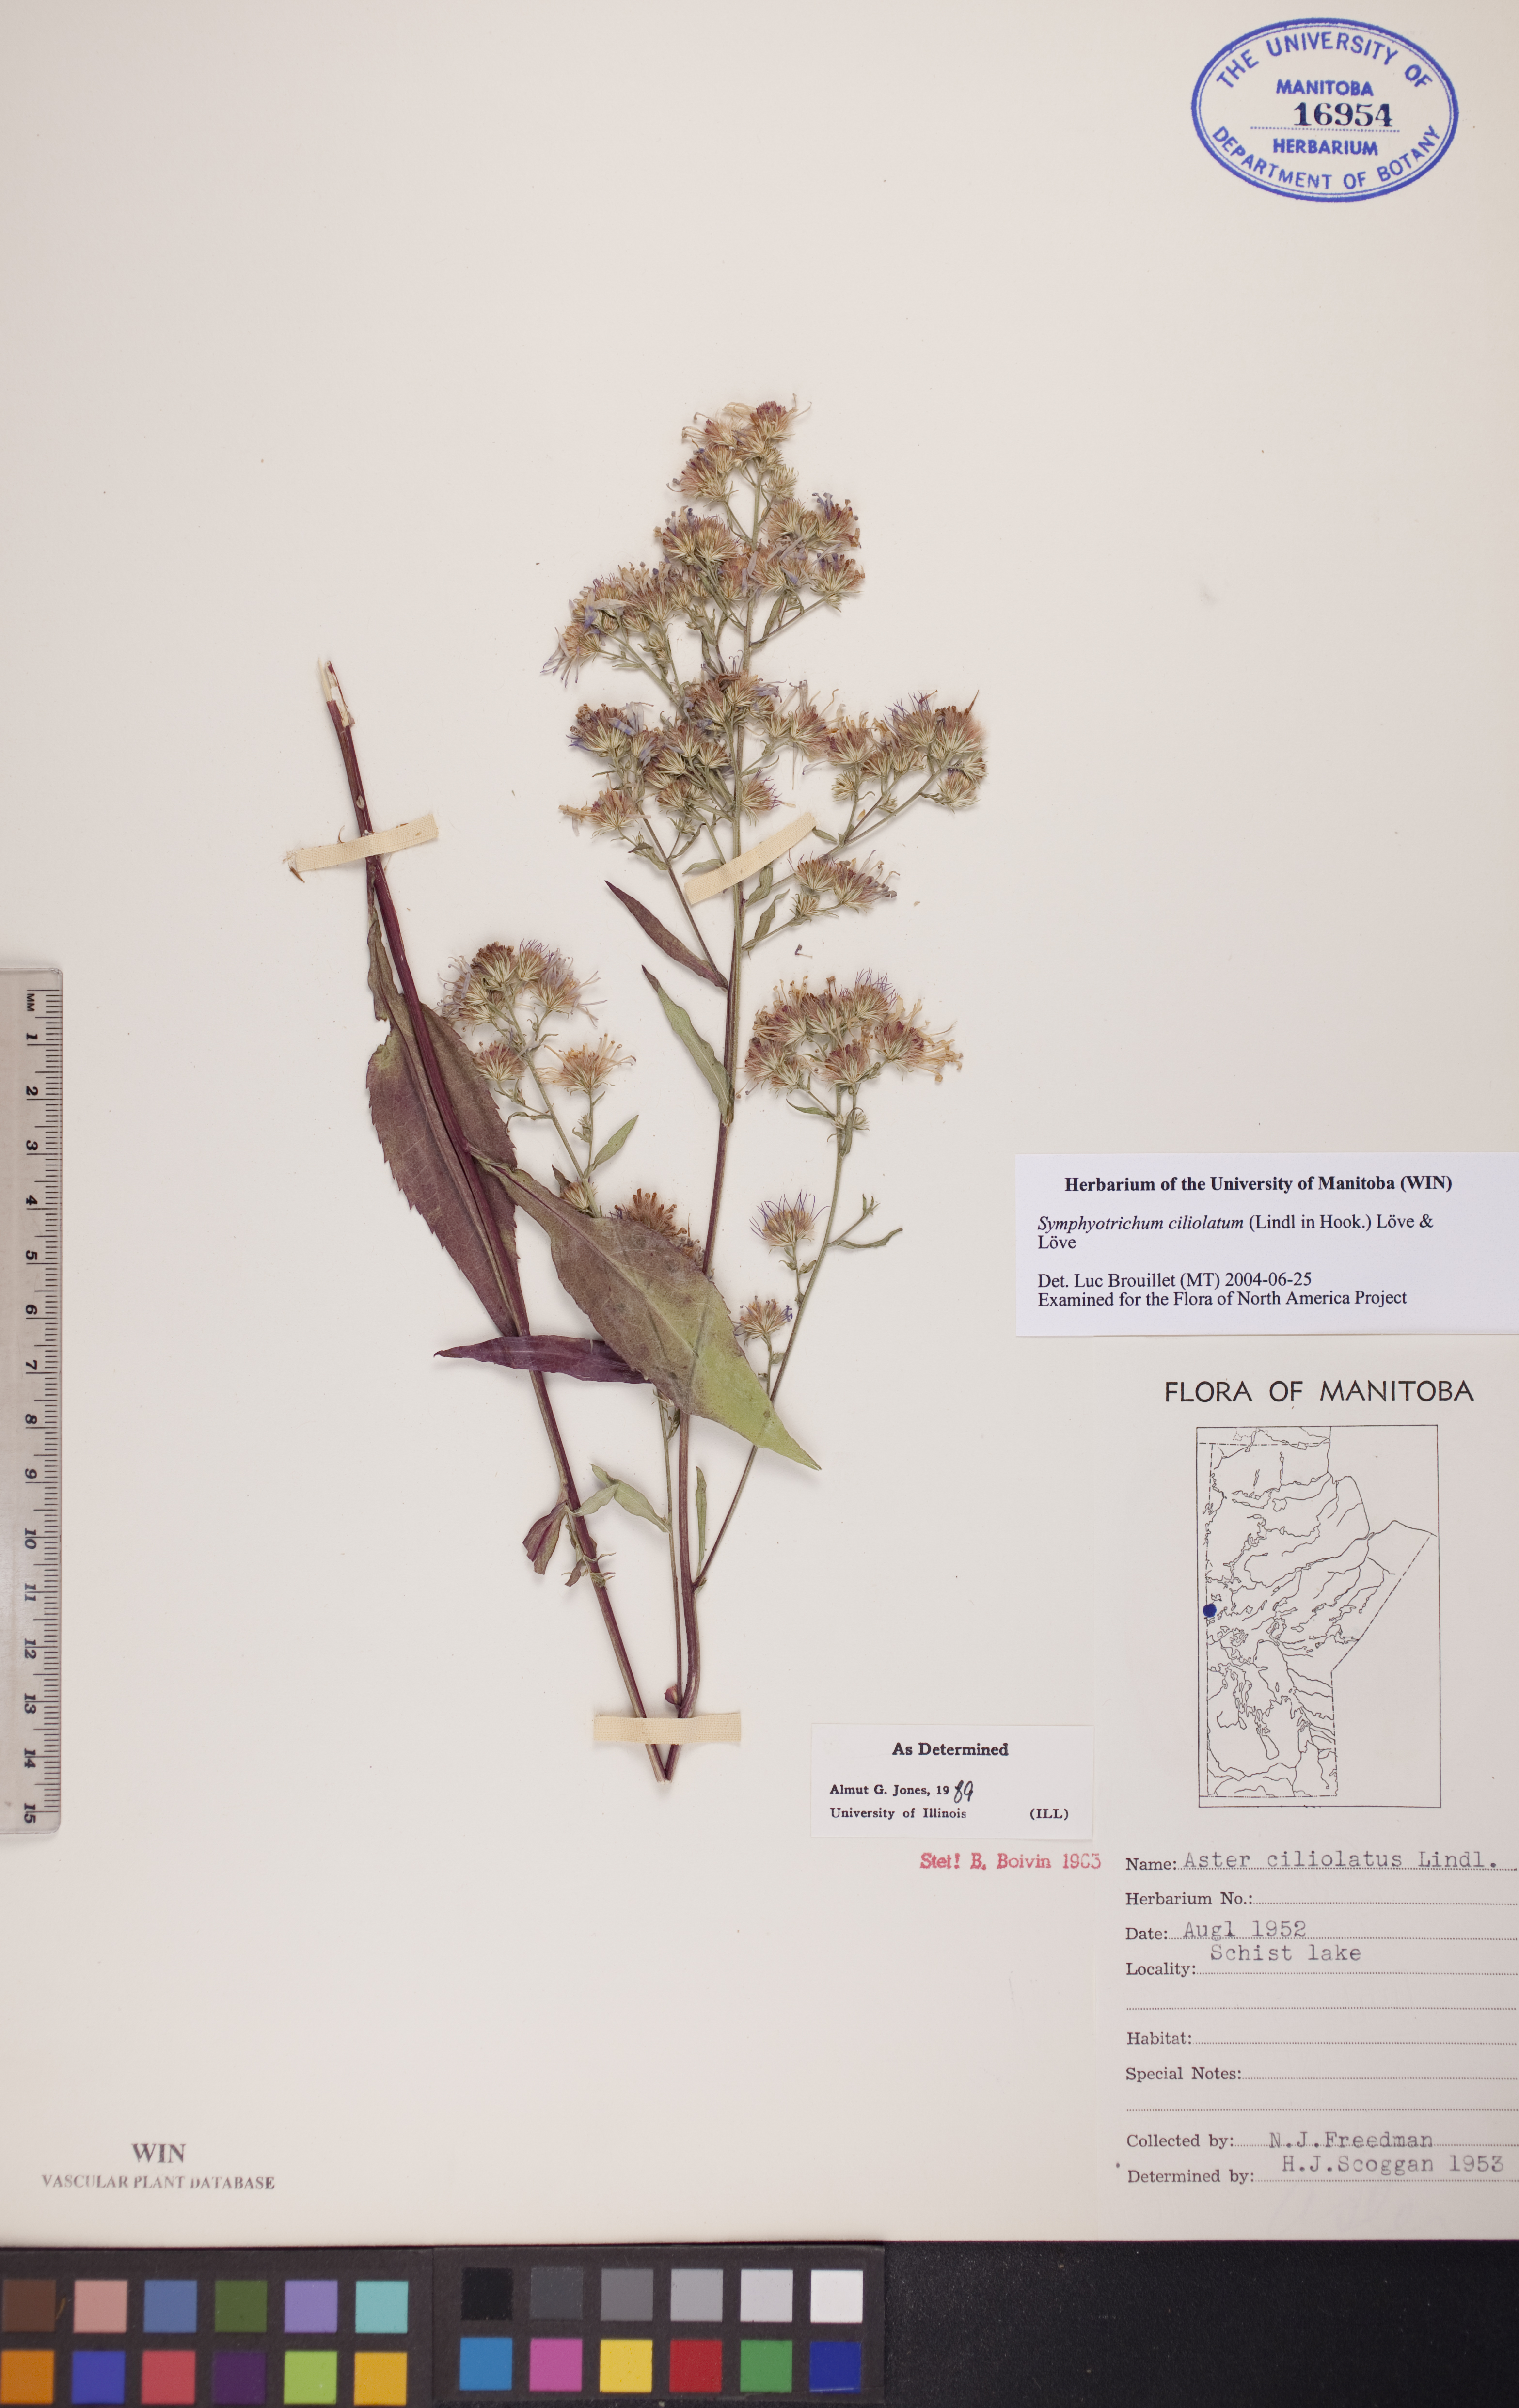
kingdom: Plantae
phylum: Tracheophyta
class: Magnoliopsida
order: Asterales
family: Asteraceae
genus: Symphyotrichum
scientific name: Symphyotrichum ciliolatum
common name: Fringed blue aster
